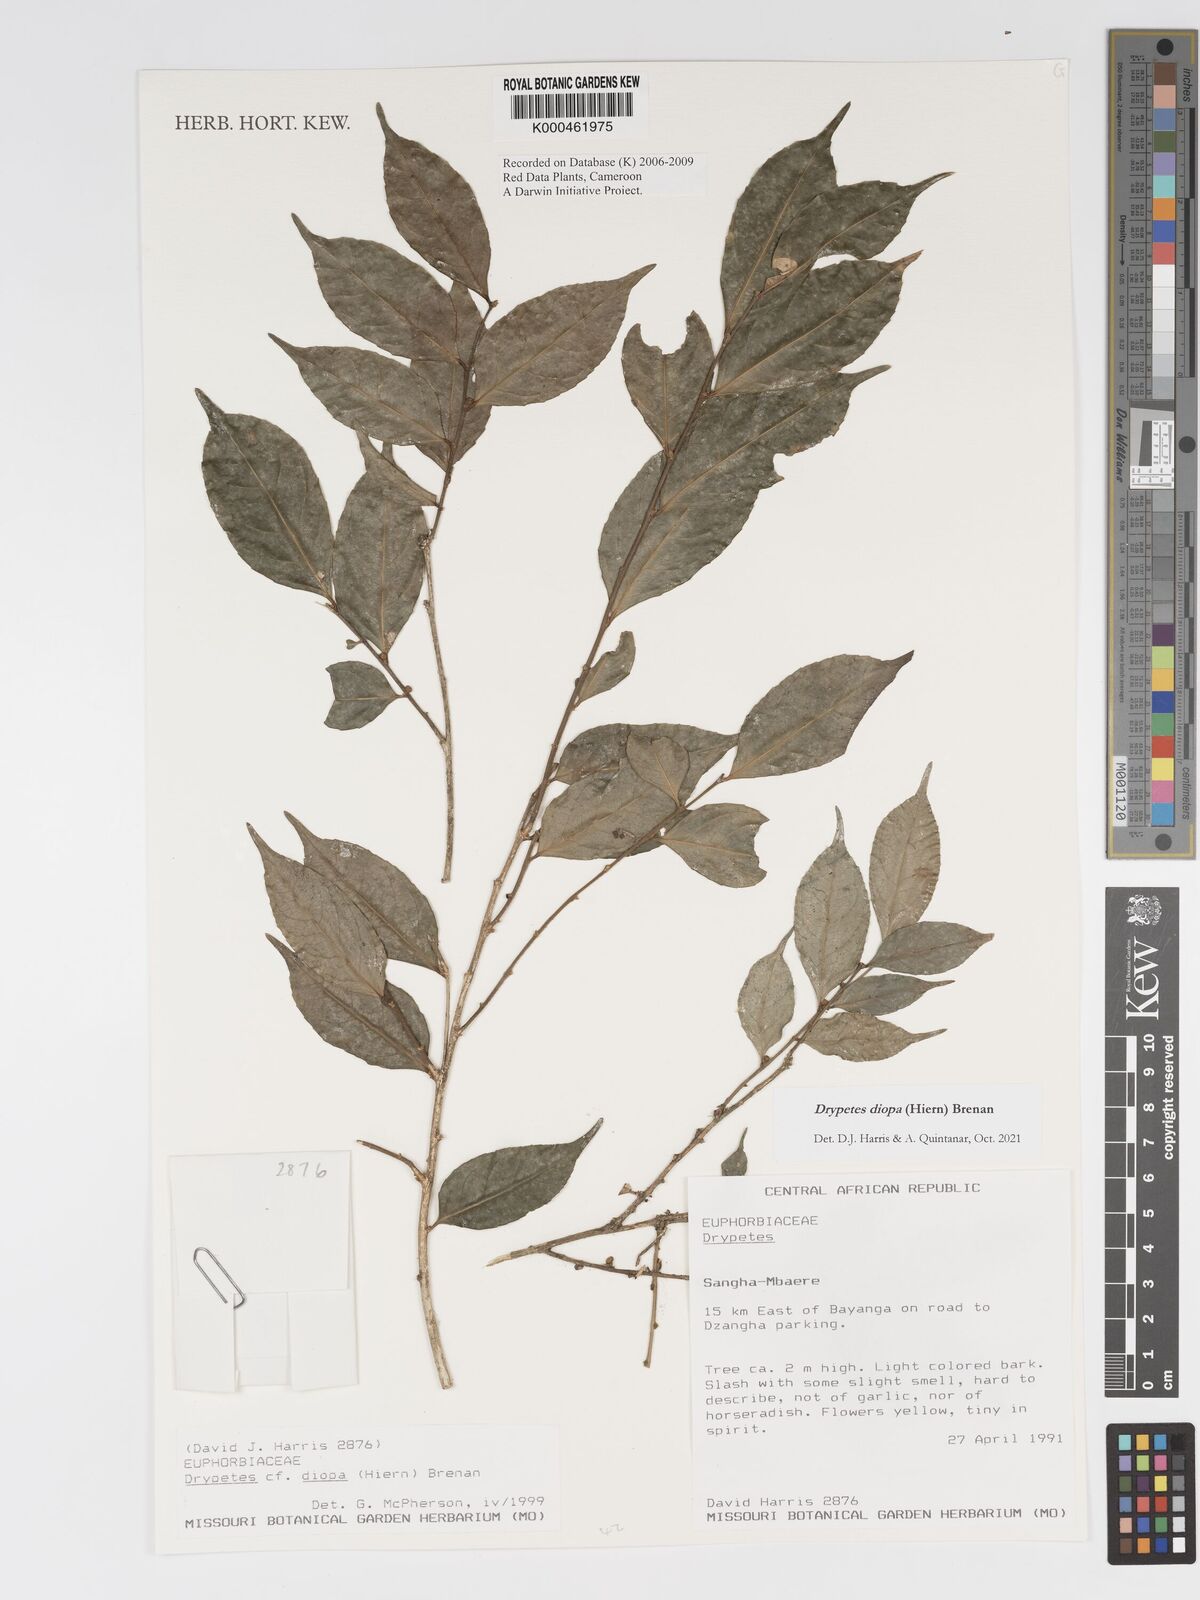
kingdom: Plantae
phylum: Tracheophyta
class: Magnoliopsida
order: Malpighiales
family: Putranjivaceae
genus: Drypetes
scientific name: Drypetes diopa
